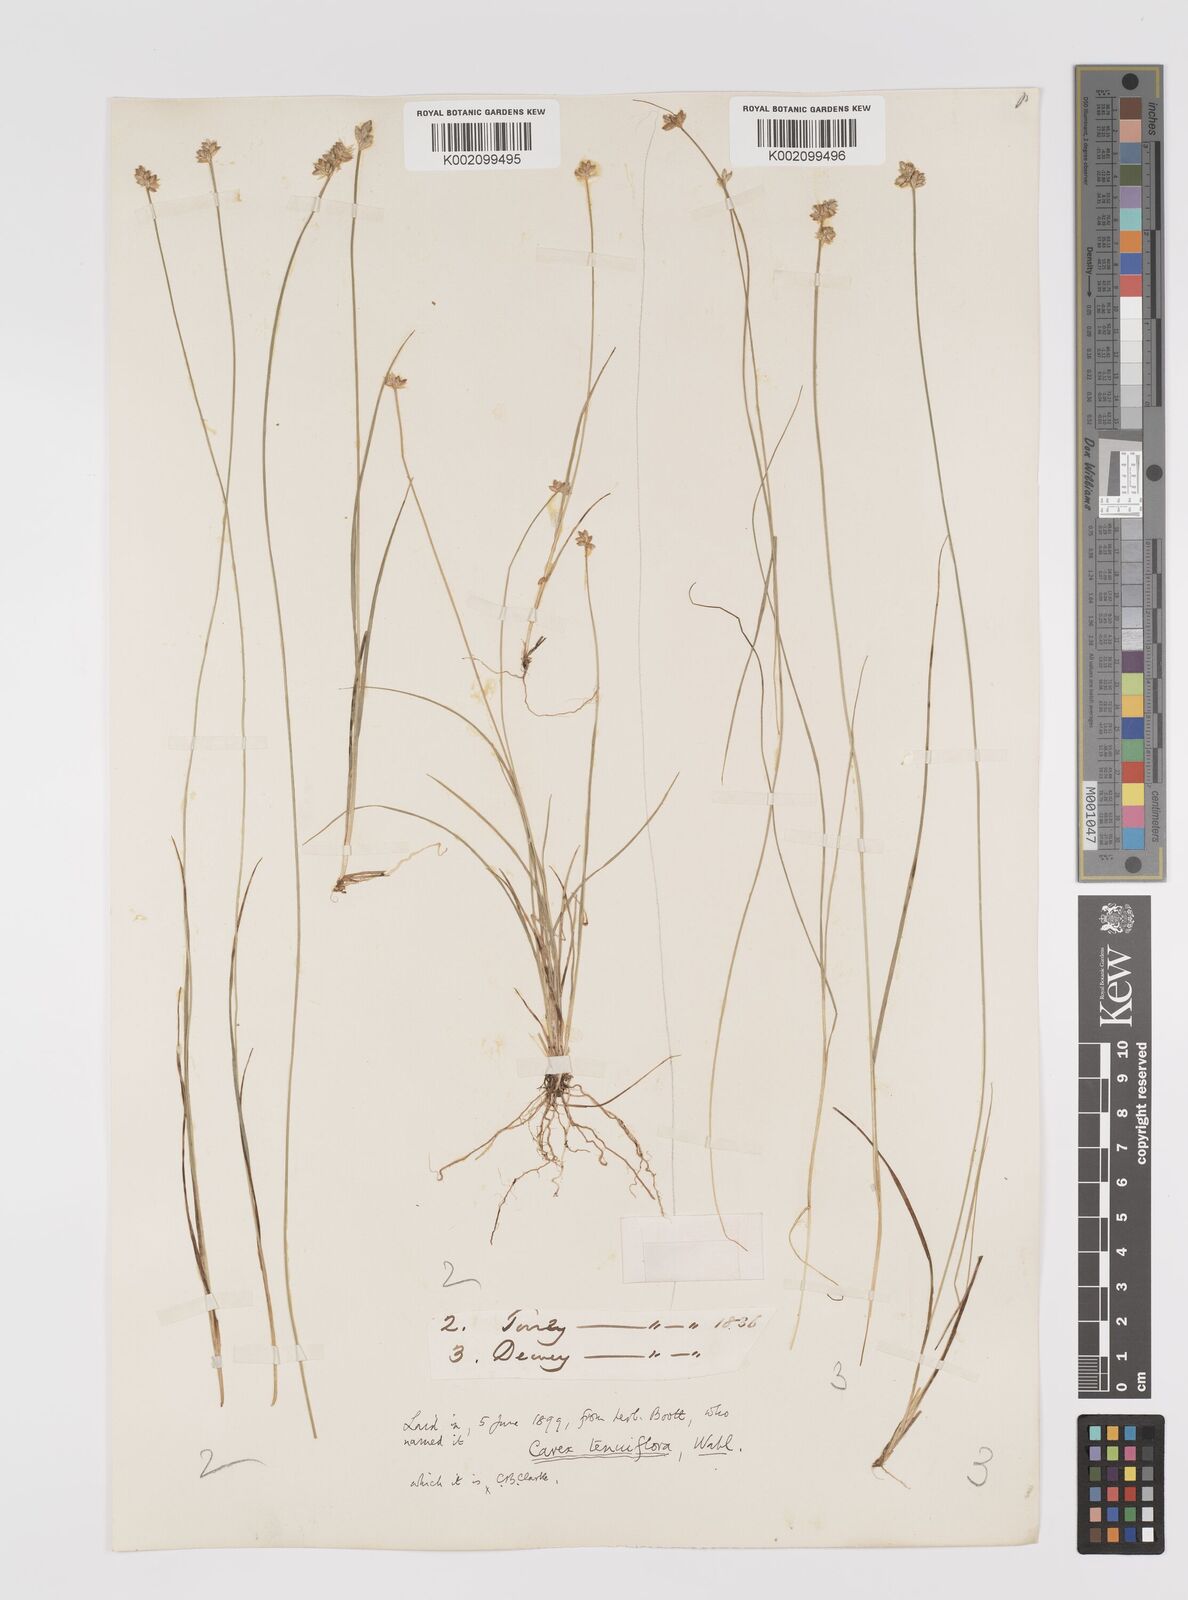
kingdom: Plantae
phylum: Tracheophyta
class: Liliopsida
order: Poales
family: Cyperaceae
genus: Carex
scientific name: Carex tenuiflora
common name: Sparse-flowered sedge
